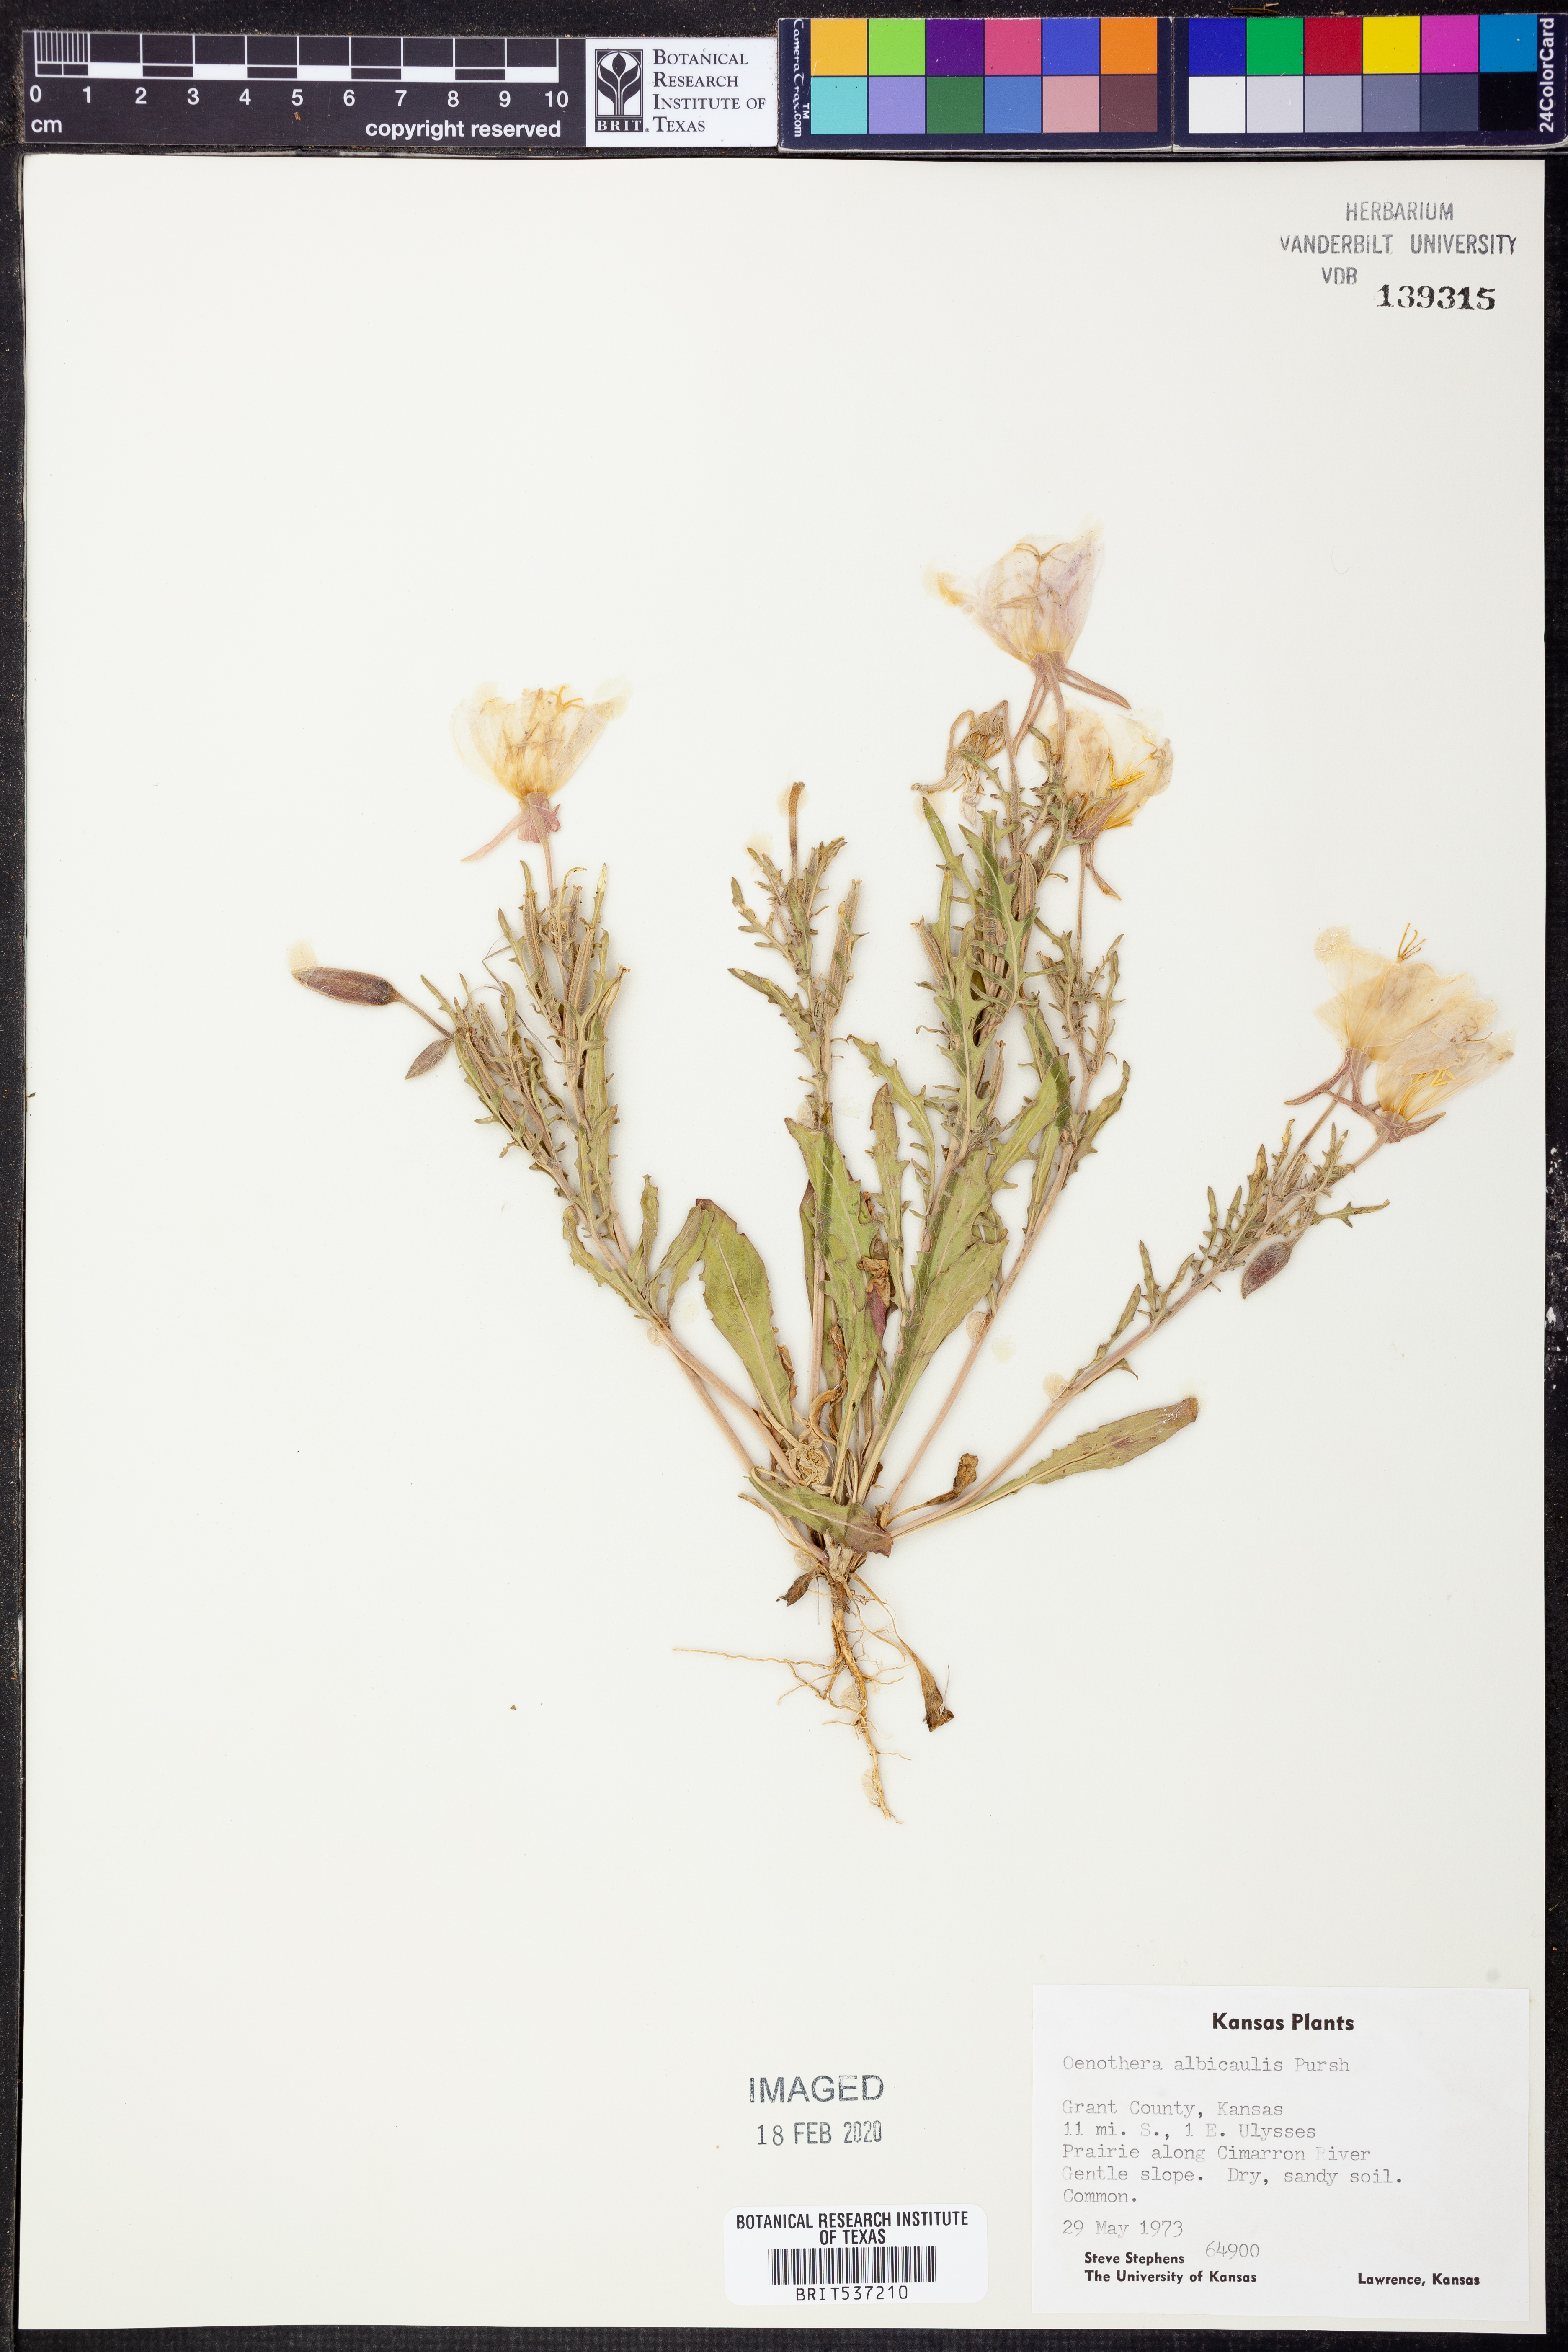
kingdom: Plantae
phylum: Tracheophyta
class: Magnoliopsida
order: Myrtales
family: Onagraceae
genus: Oenothera
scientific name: Oenothera albicaulis
